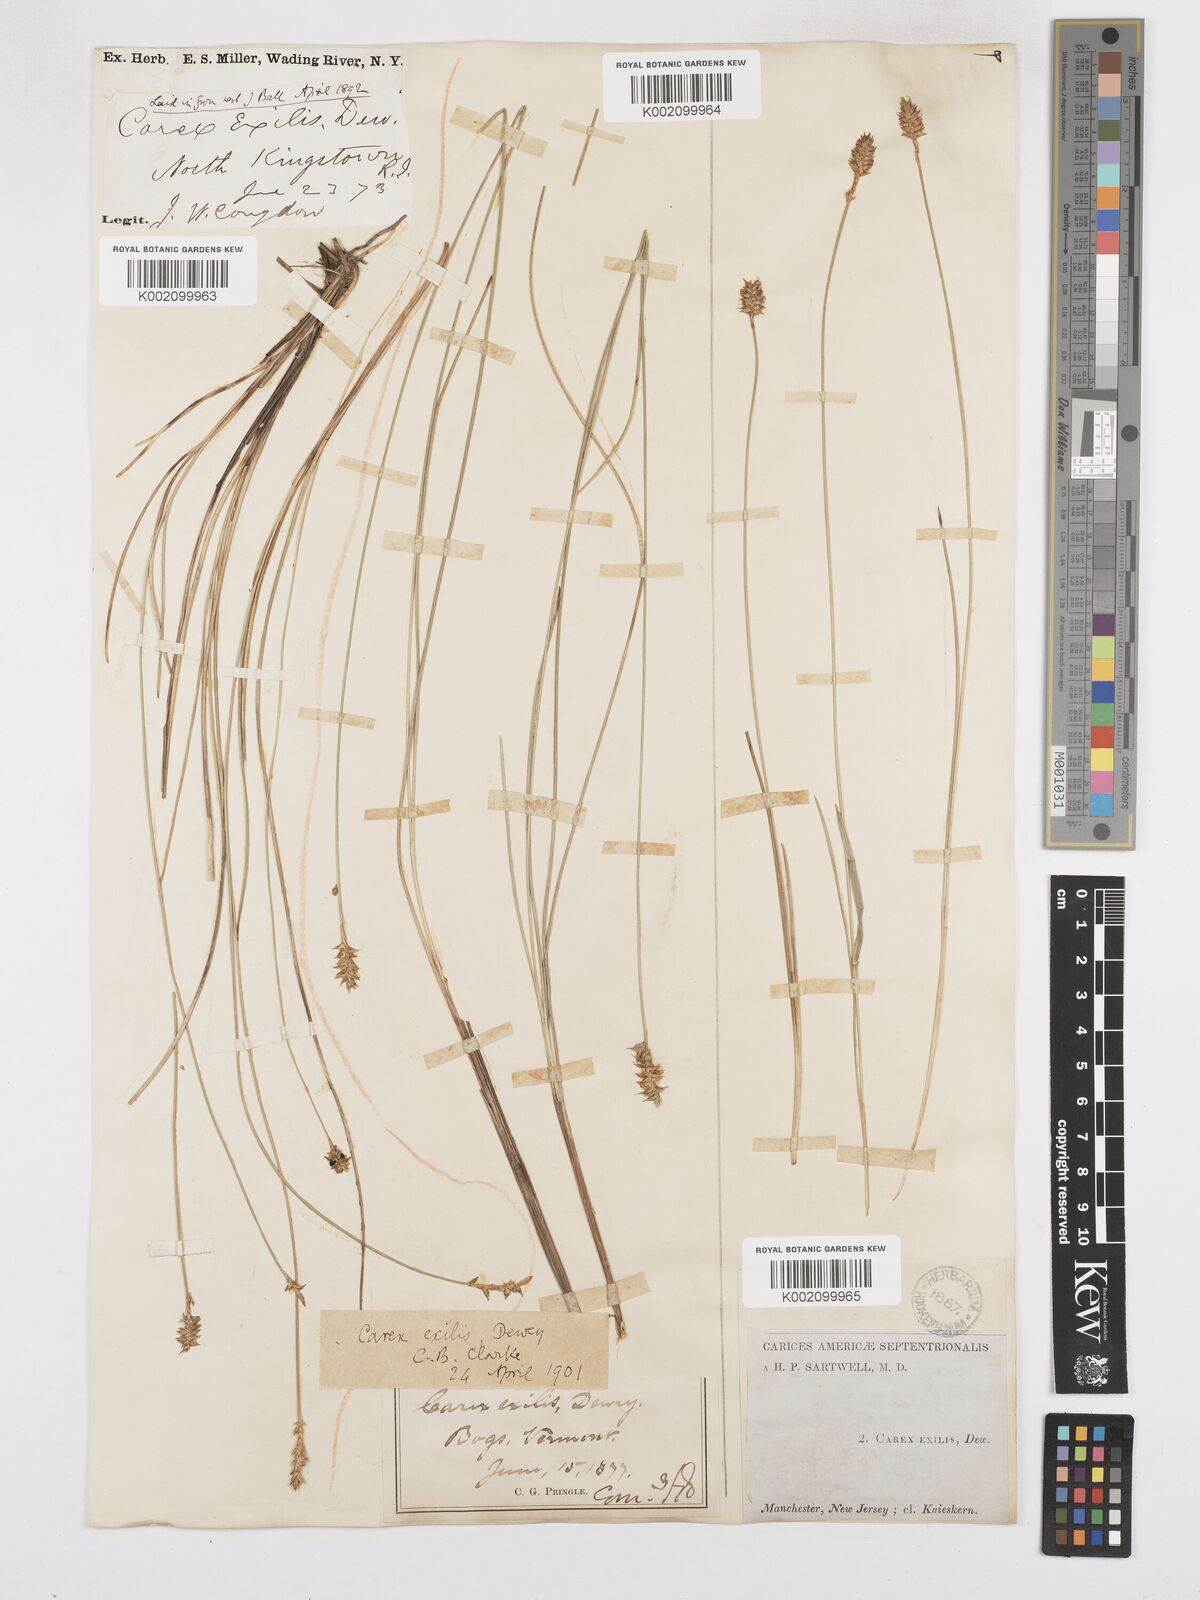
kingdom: Plantae
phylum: Tracheophyta
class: Liliopsida
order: Poales
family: Cyperaceae
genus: Carex
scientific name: Carex exilis
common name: Coastal sedge
